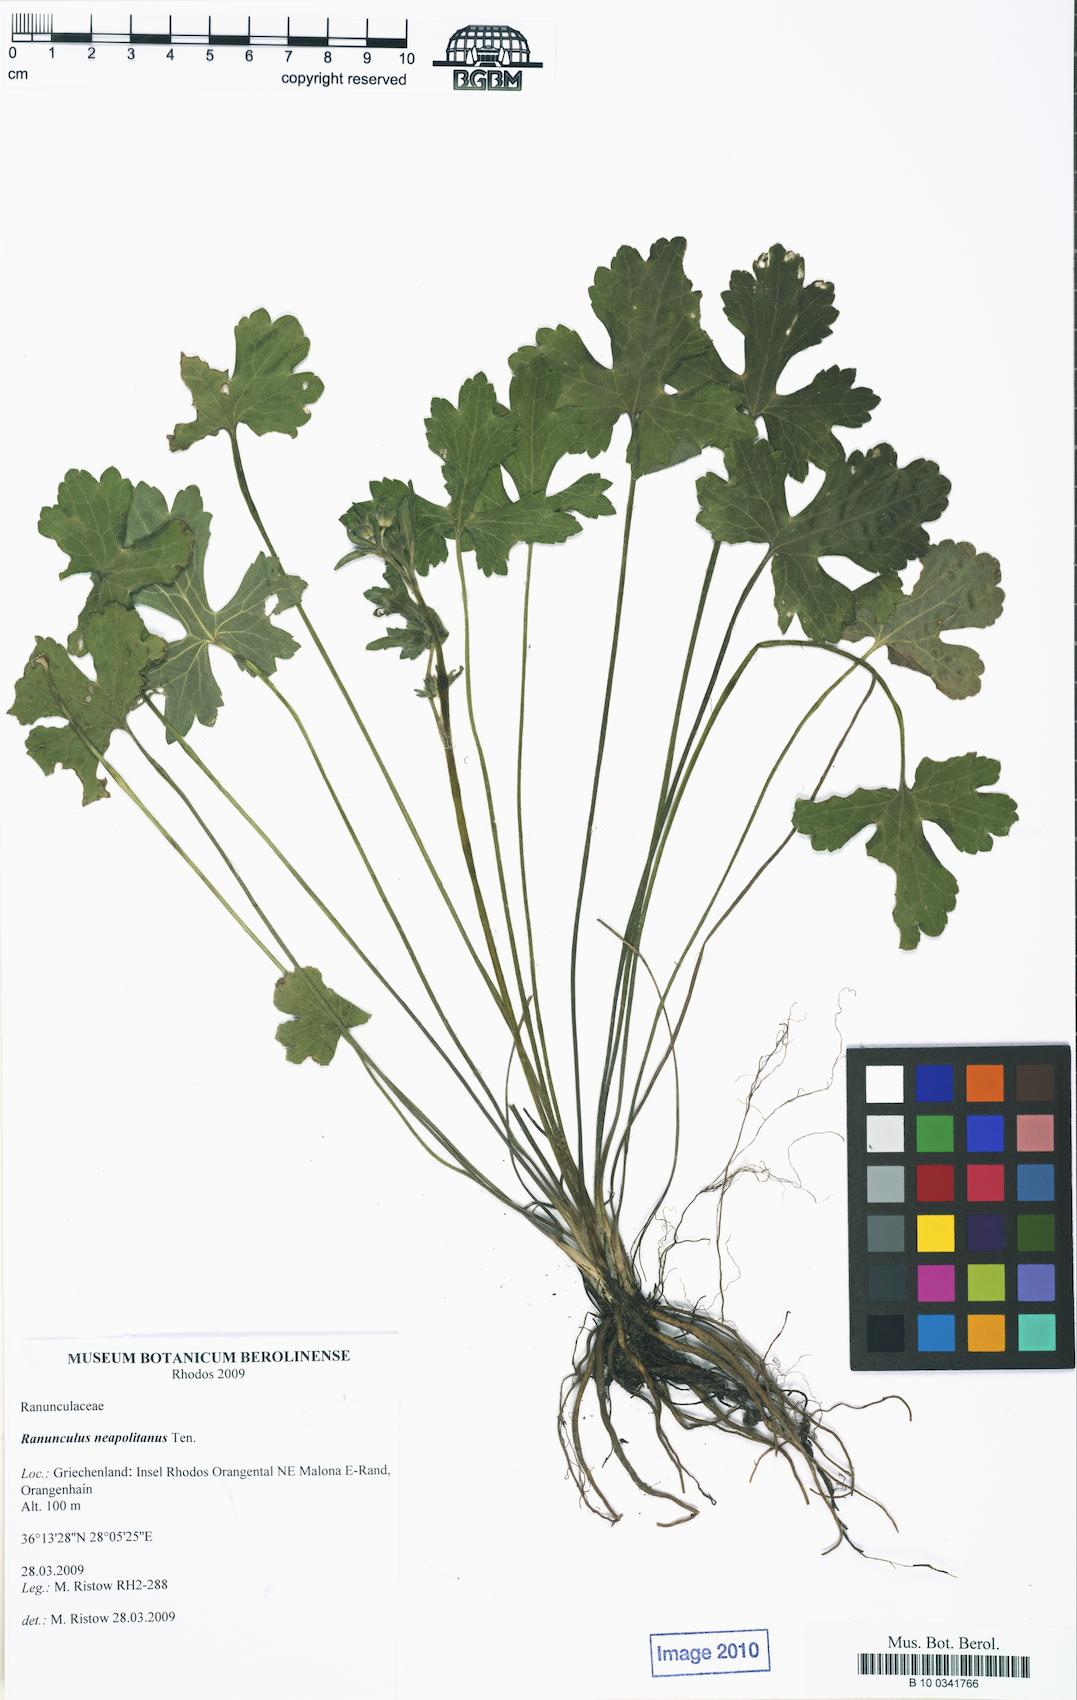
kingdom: Plantae
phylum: Tracheophyta
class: Magnoliopsida
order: Ranunculales
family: Ranunculaceae
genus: Ranunculus
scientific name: Ranunculus neapolitanus
